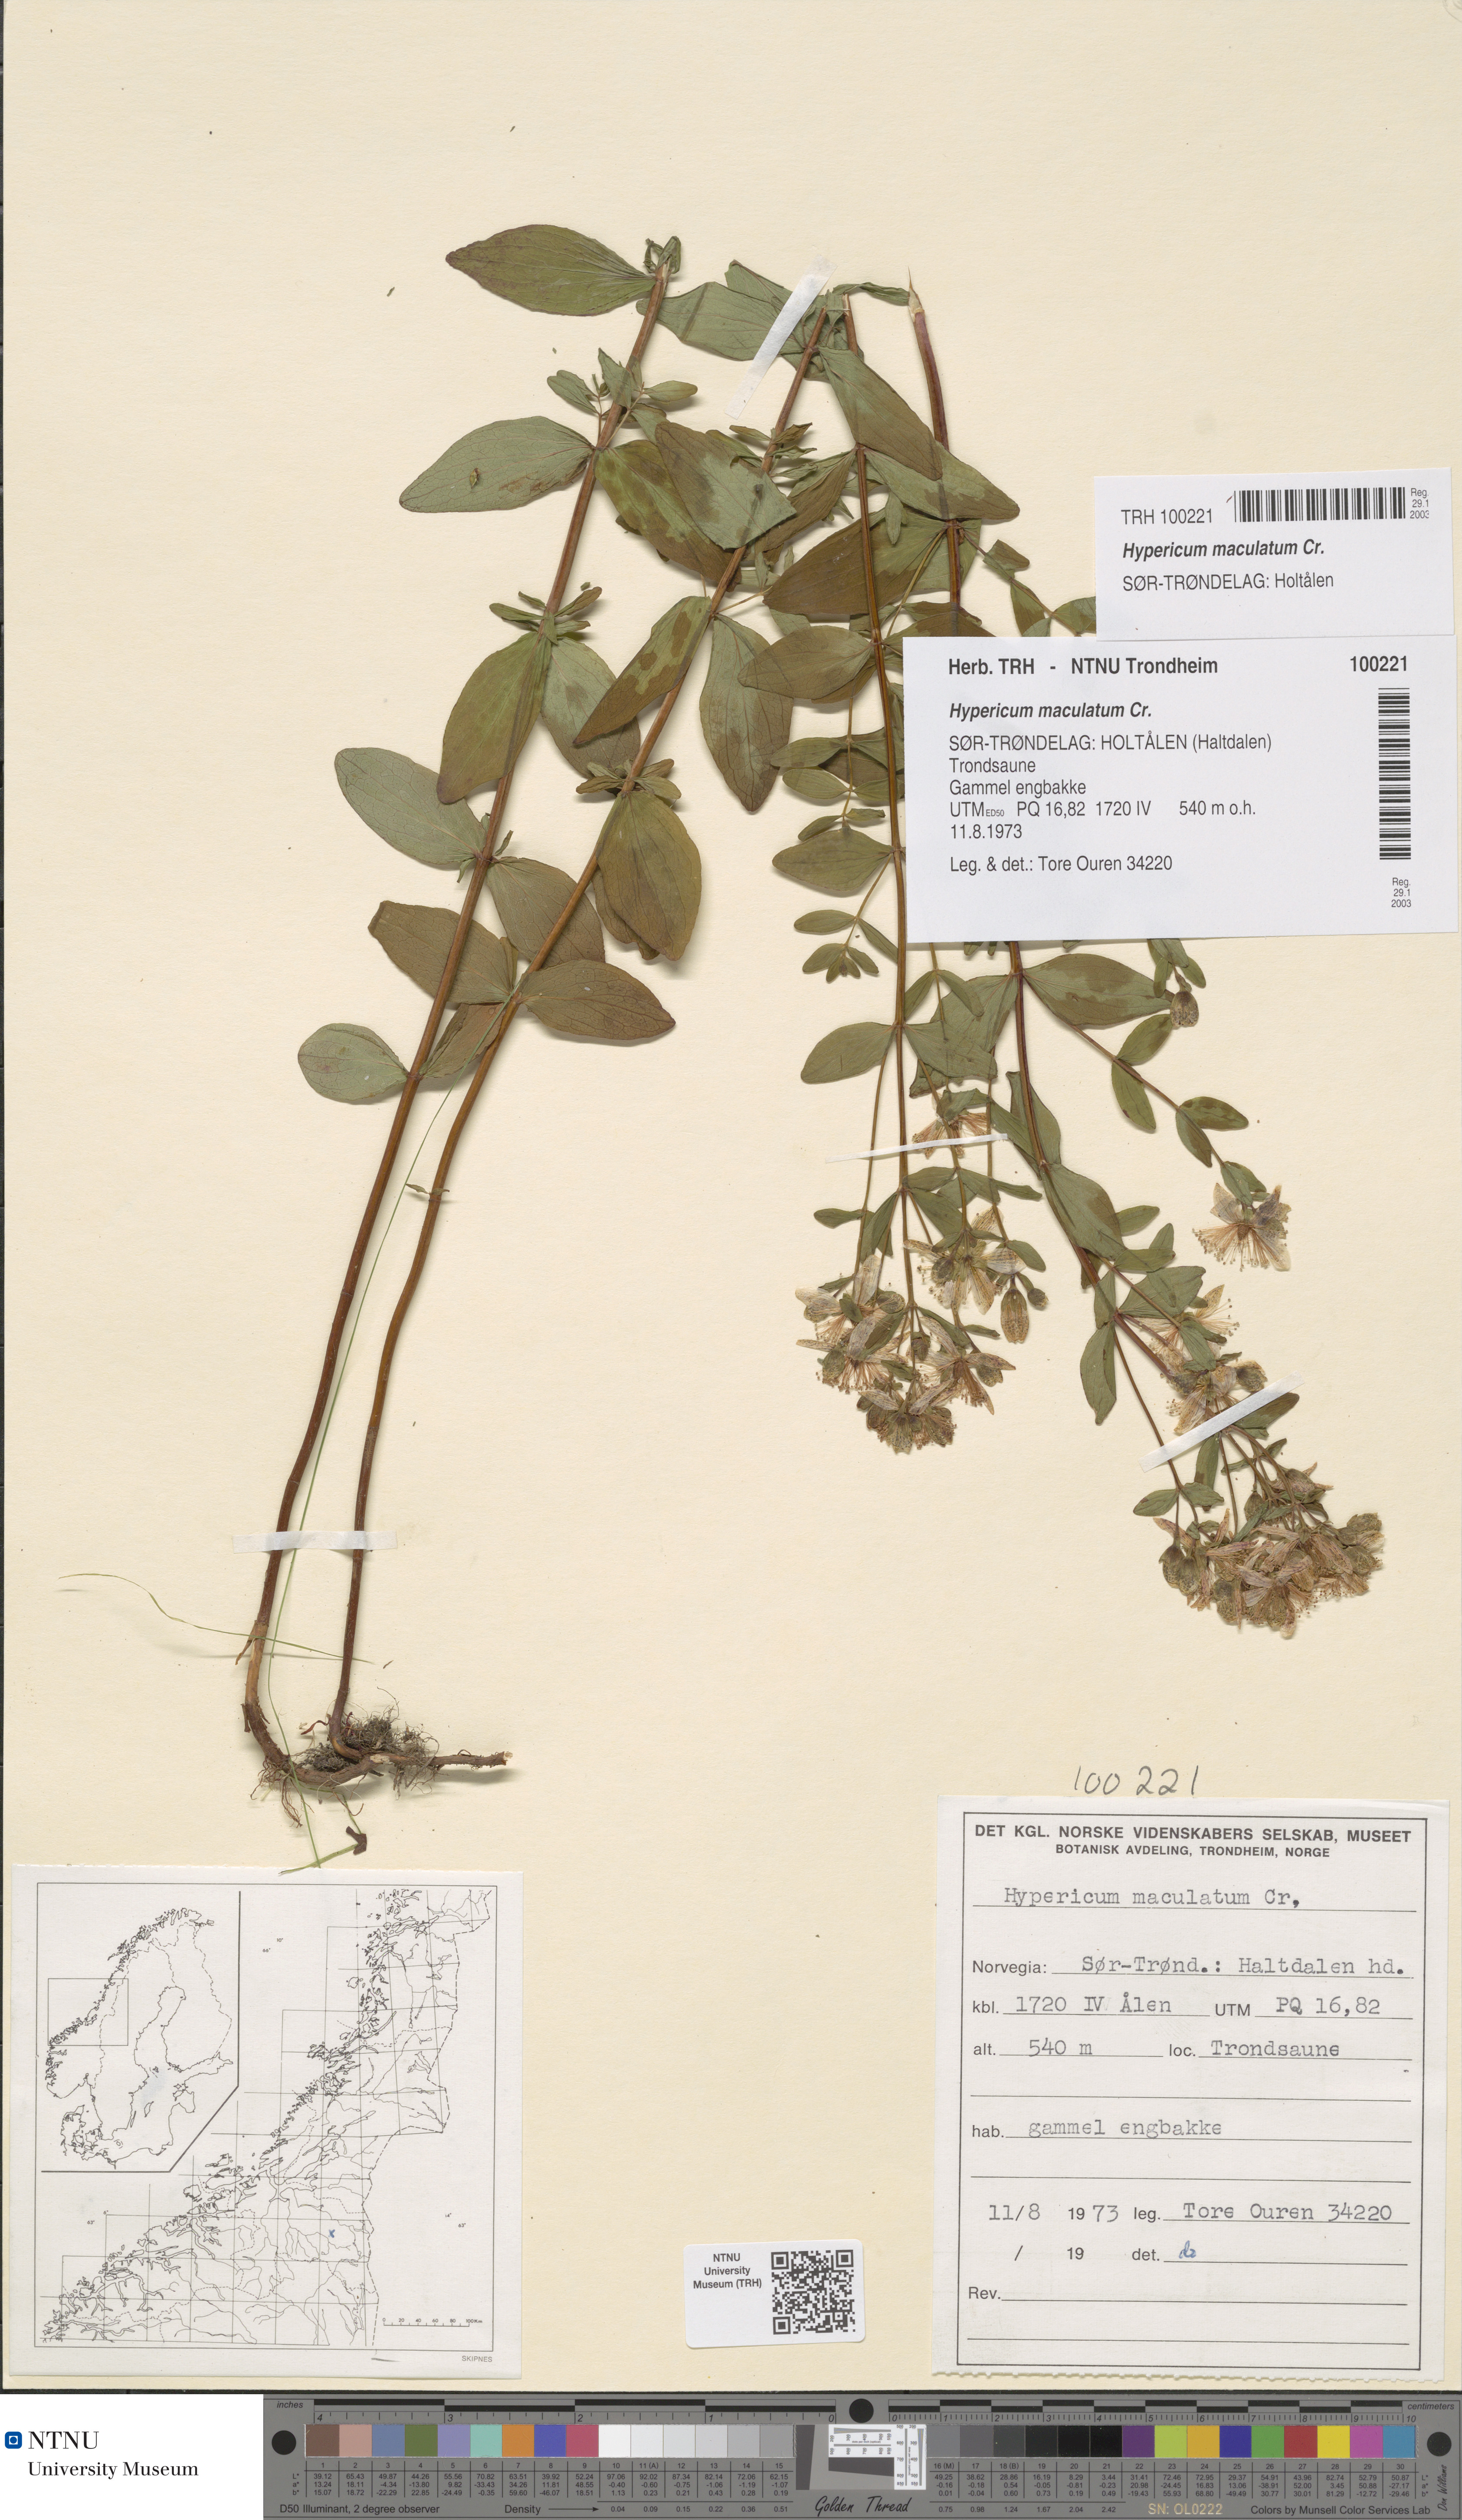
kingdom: Plantae
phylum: Tracheophyta
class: Magnoliopsida
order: Malpighiales
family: Hypericaceae
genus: Hypericum
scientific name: Hypericum maculatum
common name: Imperforate st. john's-wort
